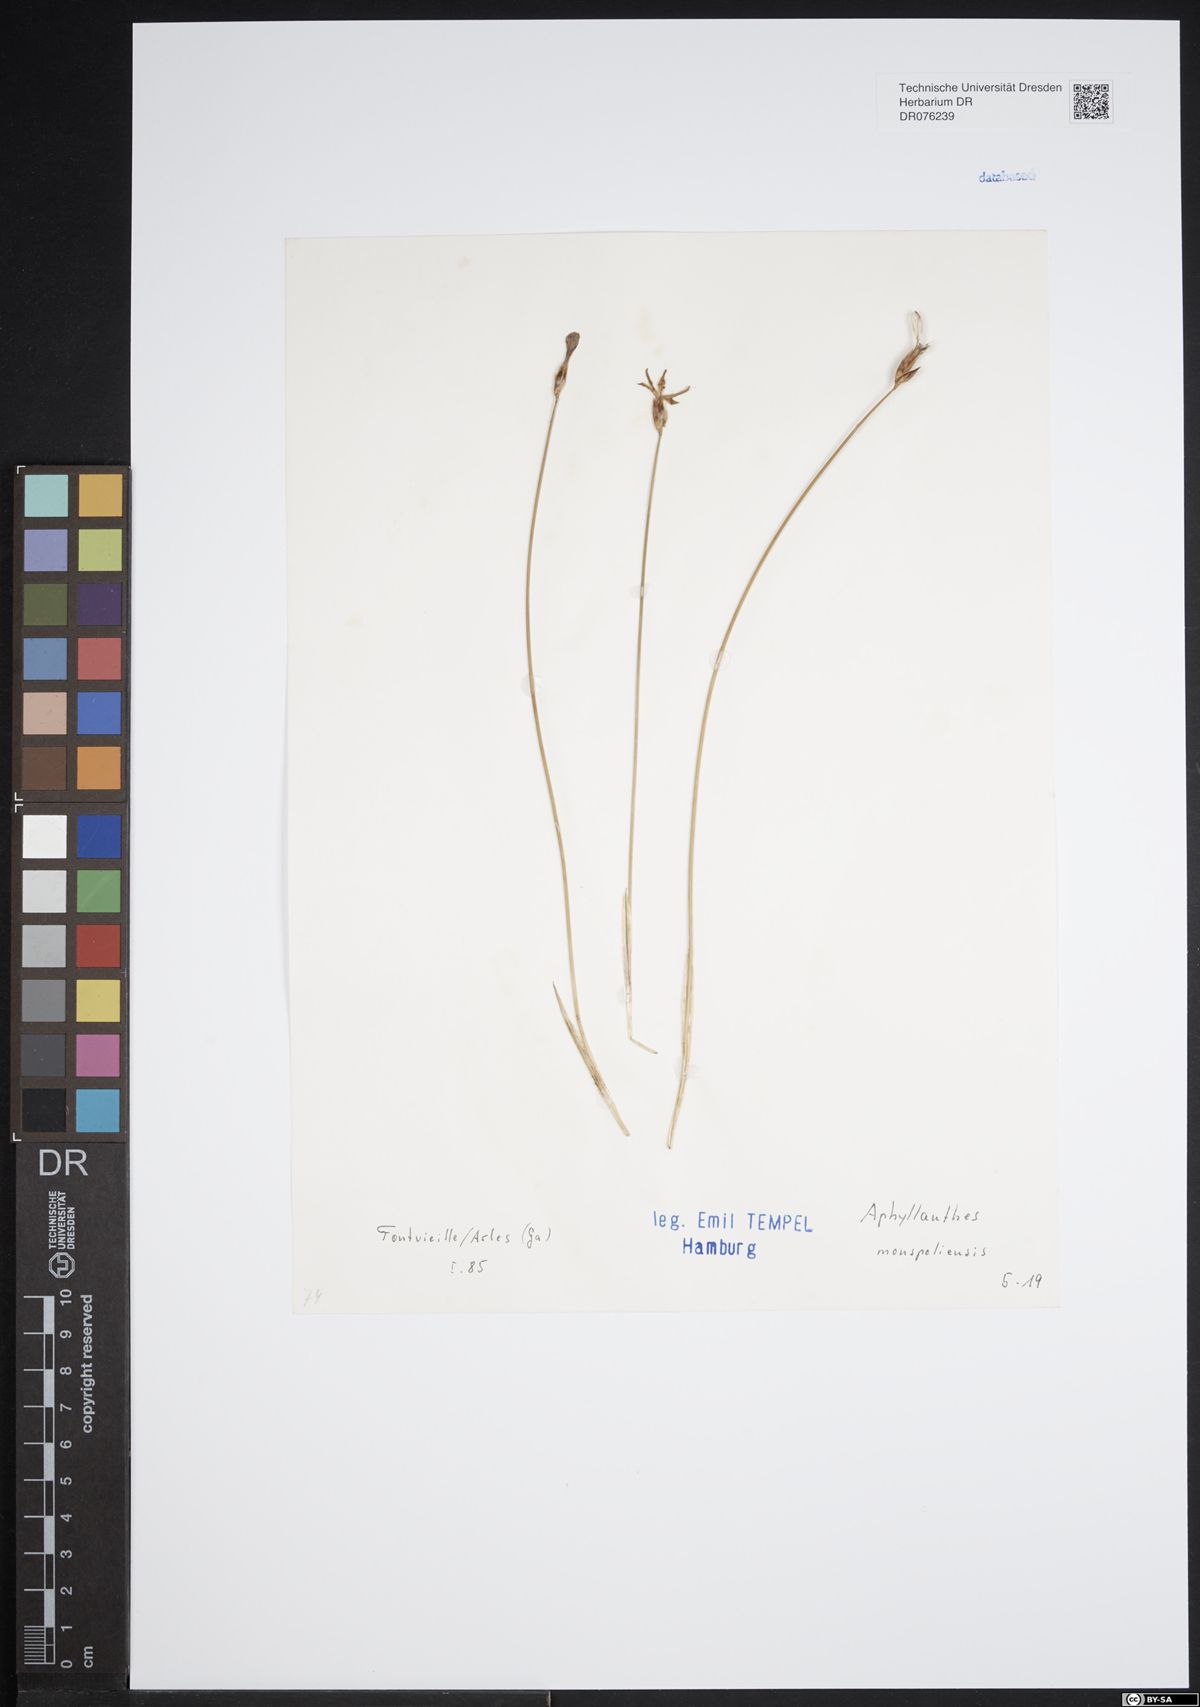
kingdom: Plantae
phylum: Tracheophyta
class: Liliopsida
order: Asparagales
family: Asparagaceae
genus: Aphyllanthes
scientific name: Aphyllanthes monspeliensis
